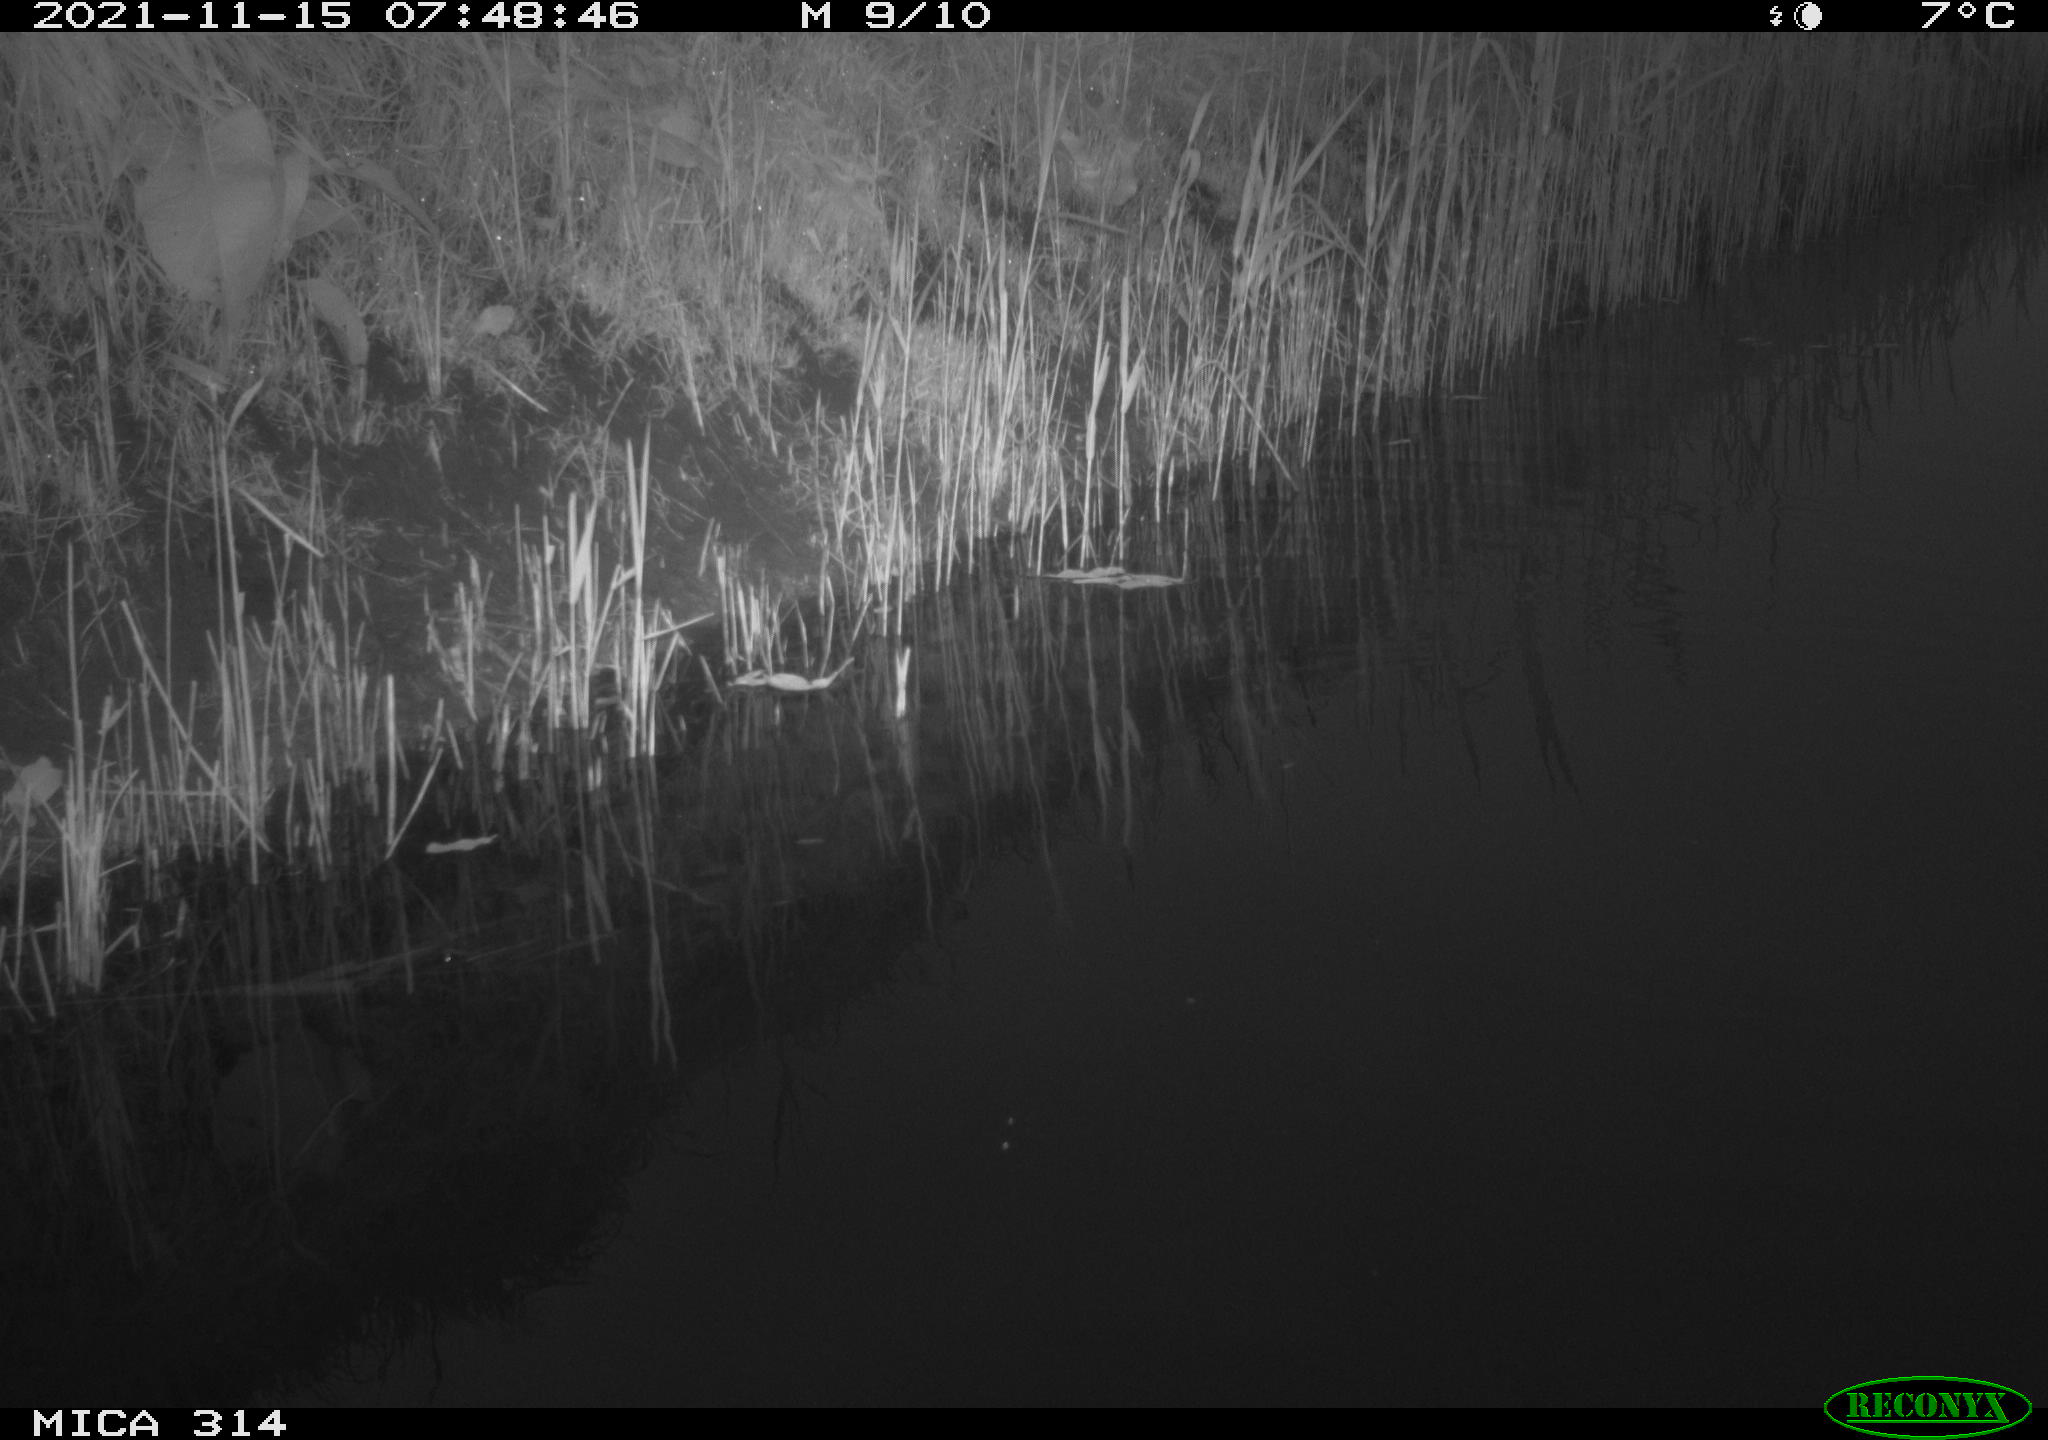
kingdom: Animalia
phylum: Chordata
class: Aves
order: Gruiformes
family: Rallidae
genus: Gallinula
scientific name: Gallinula chloropus
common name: Common moorhen
